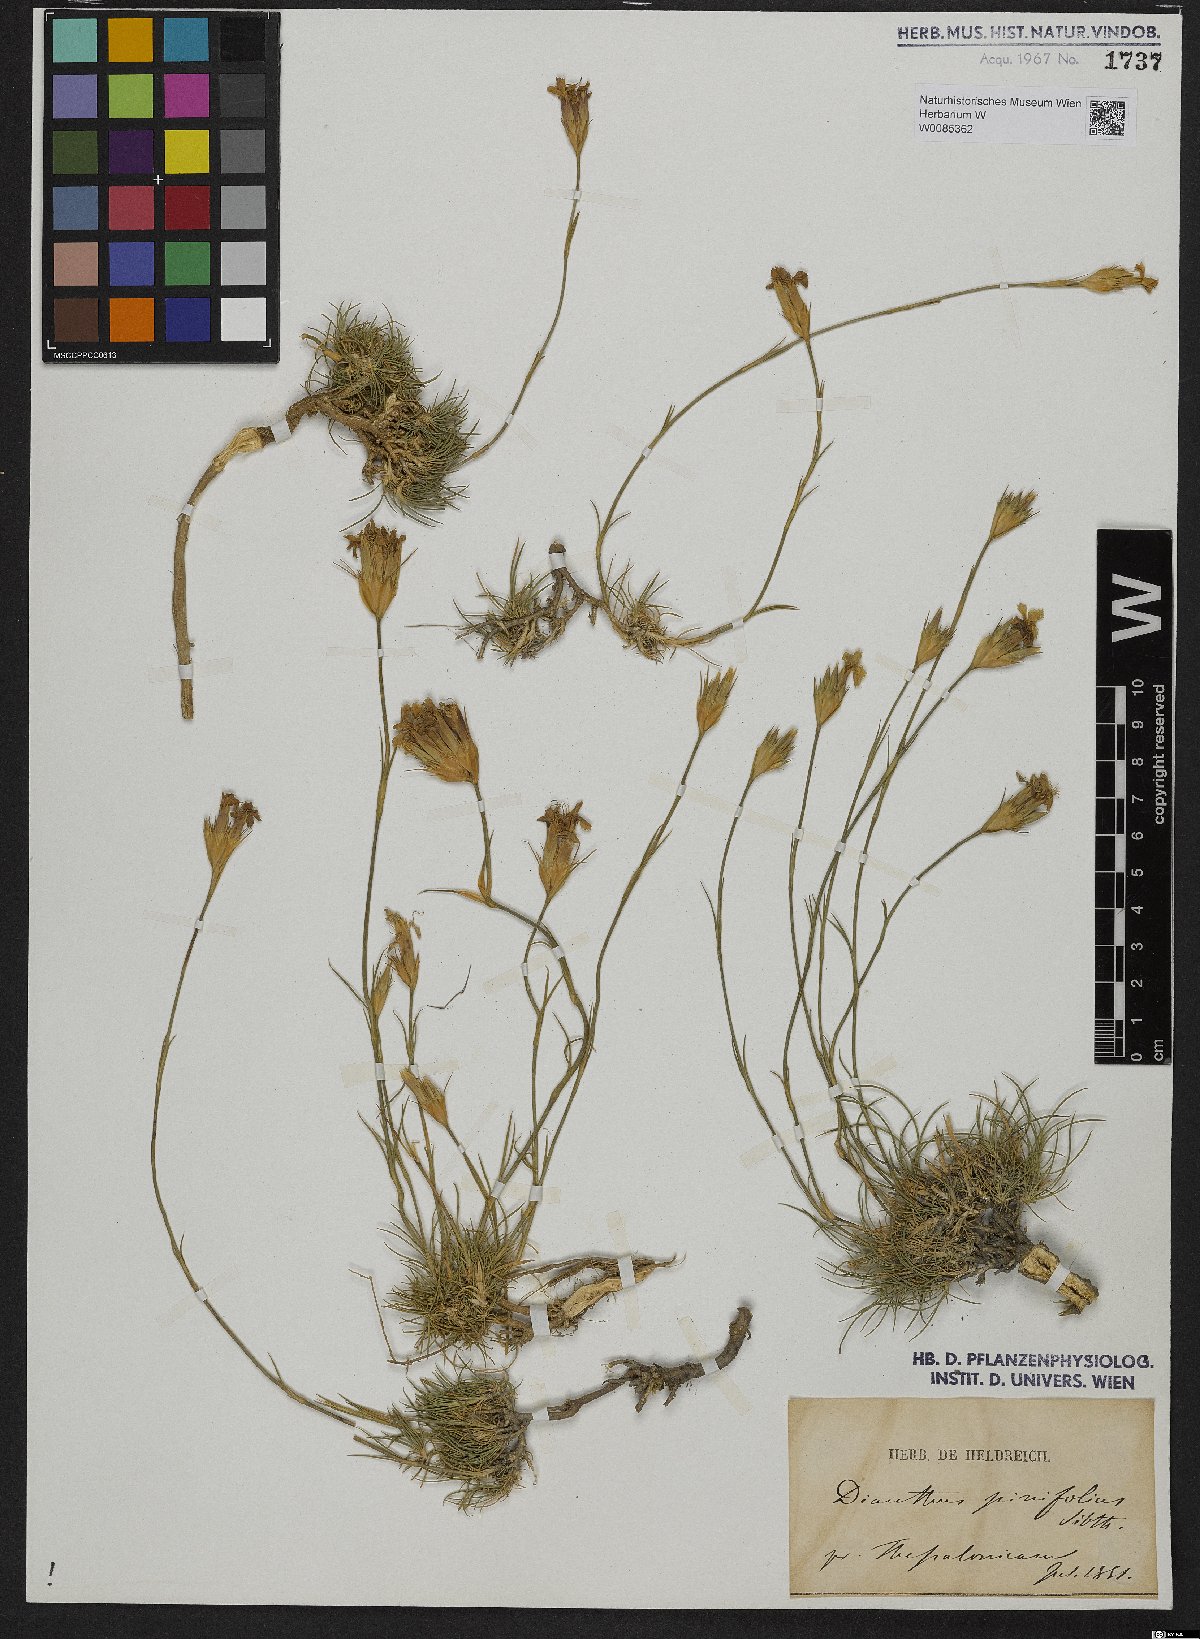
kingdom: Plantae
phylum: Tracheophyta
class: Magnoliopsida
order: Caryophyllales
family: Caryophyllaceae
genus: Dianthus
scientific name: Dianthus pinifolius
